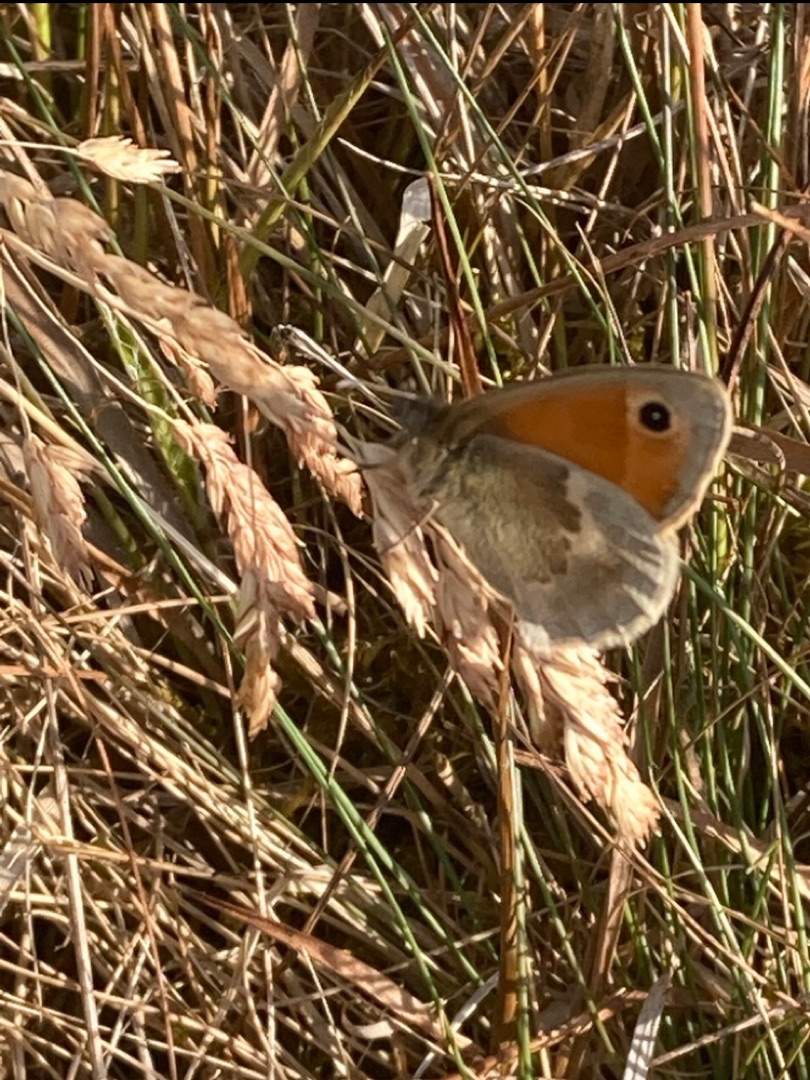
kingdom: Animalia
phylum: Arthropoda
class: Insecta
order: Lepidoptera
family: Nymphalidae
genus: Coenonympha
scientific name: Coenonympha pamphilus
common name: Okkergul randøje
